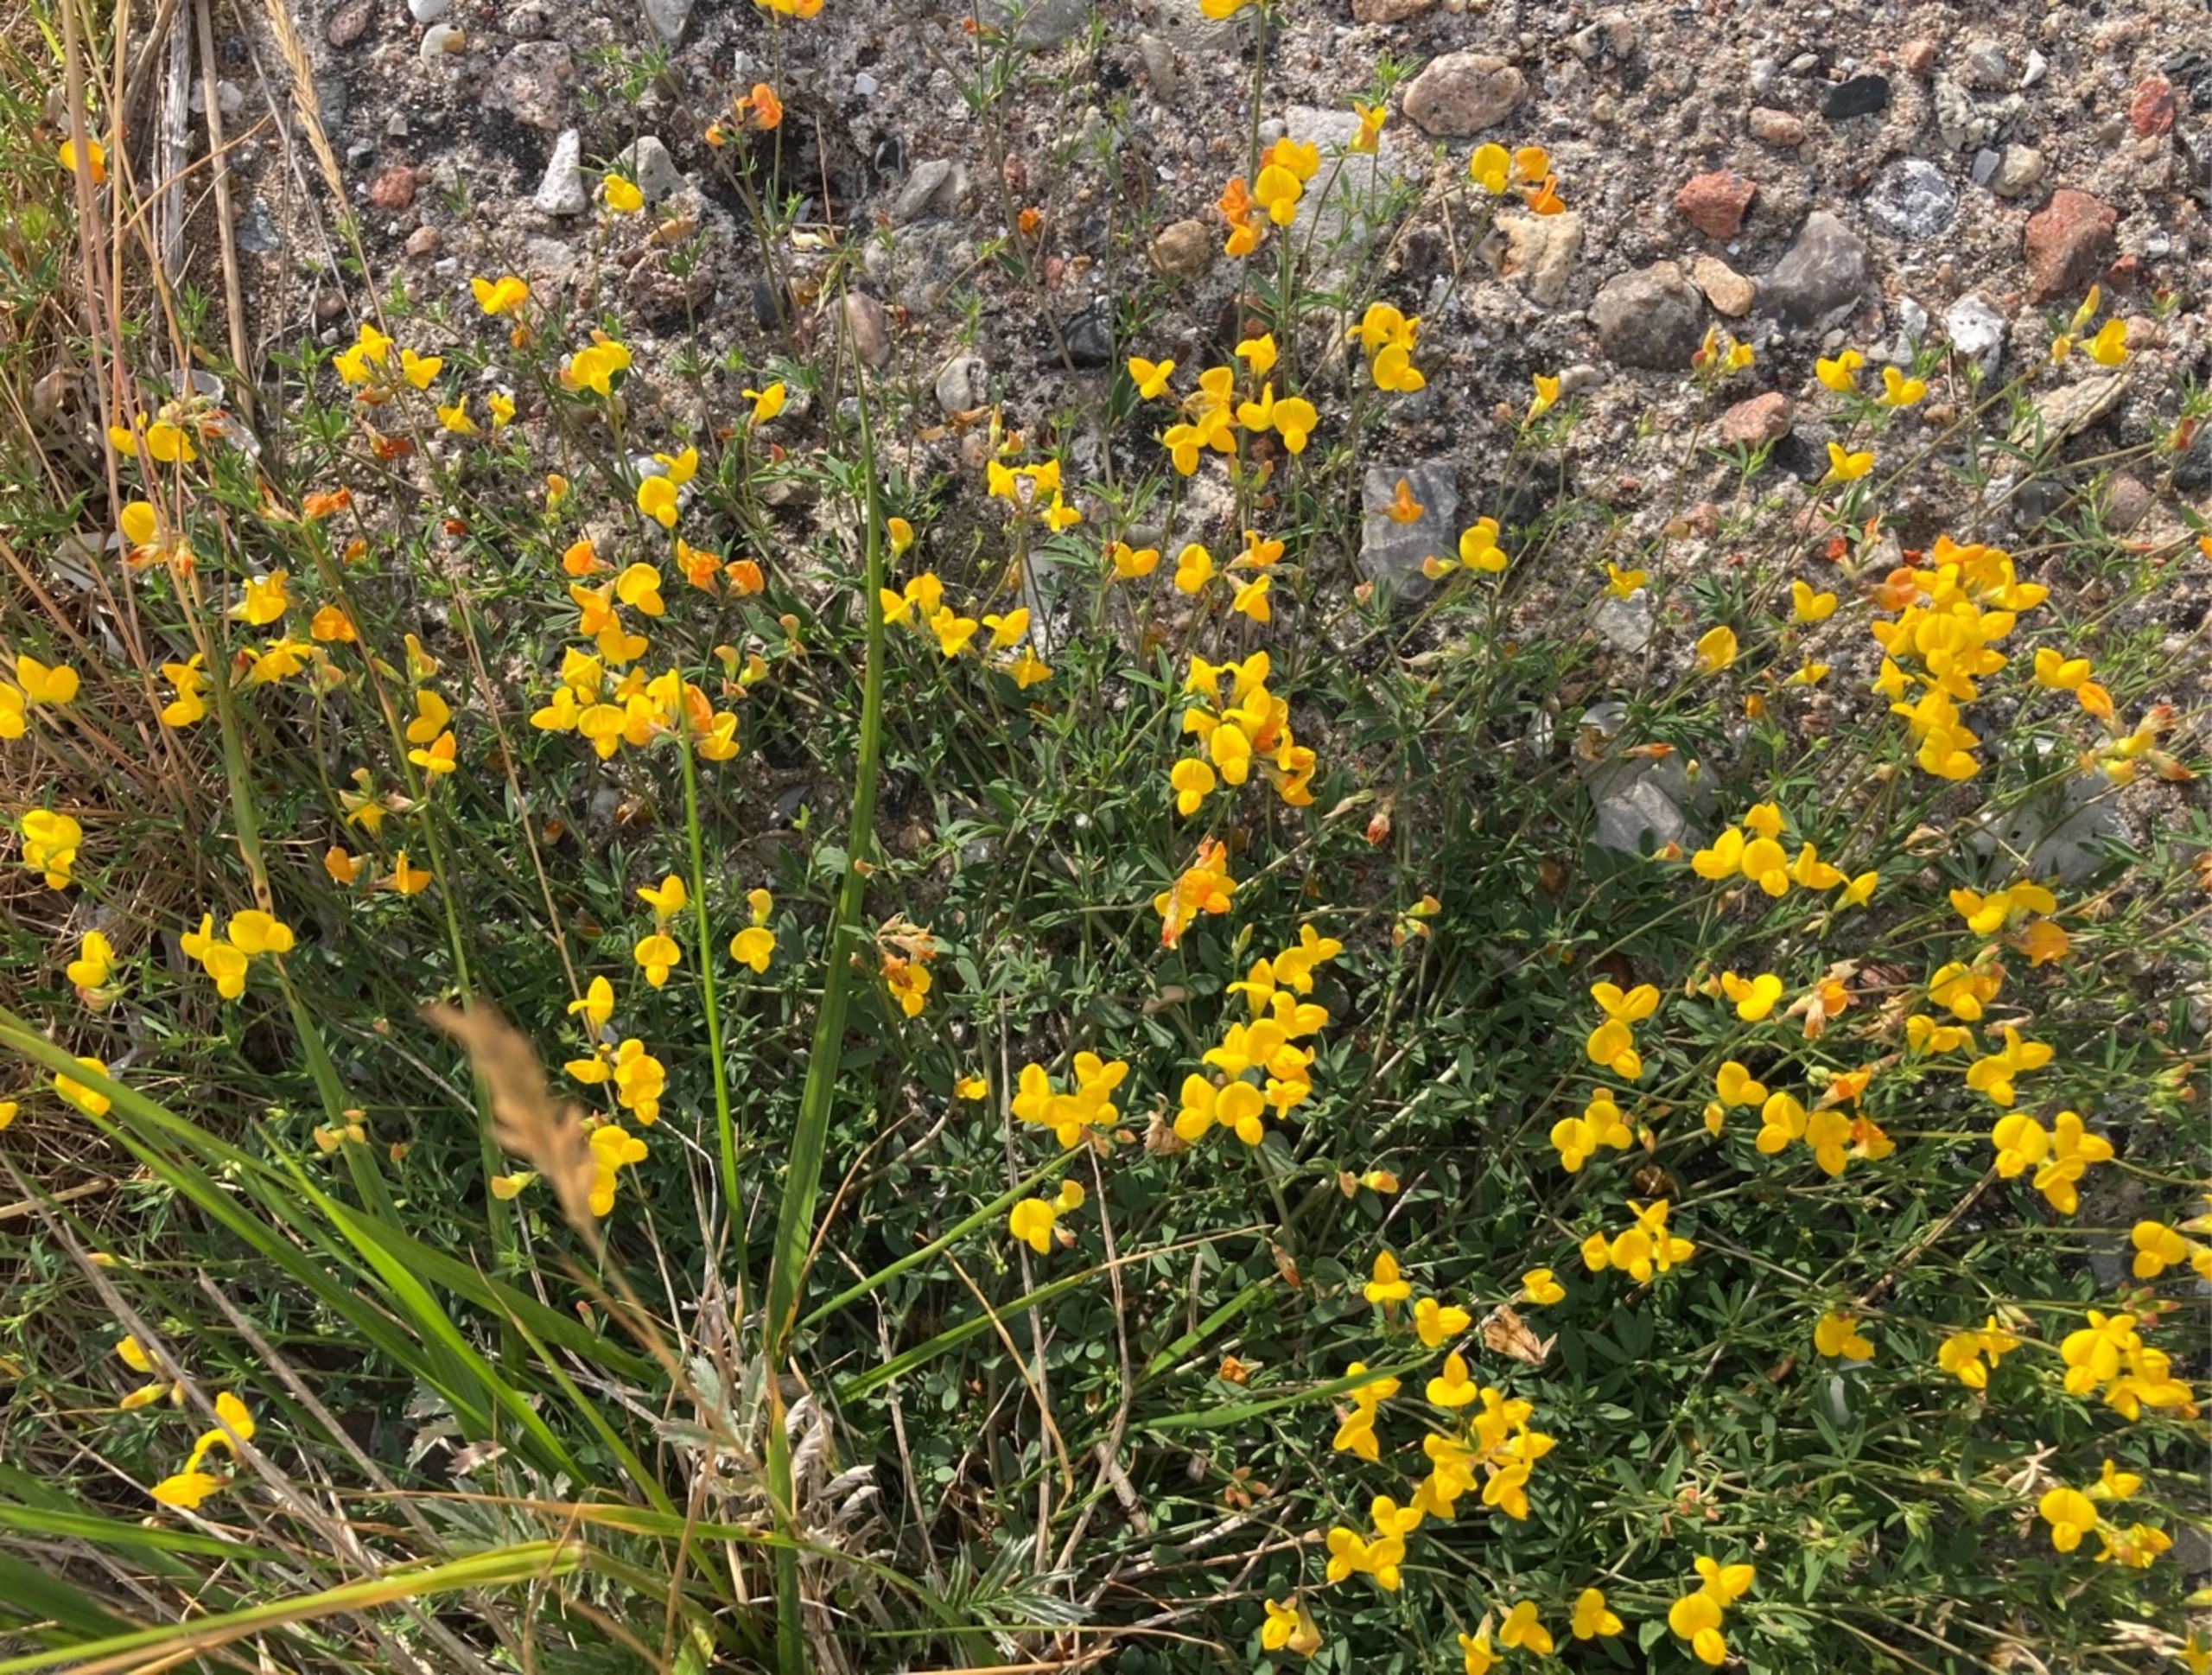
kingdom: Plantae
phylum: Tracheophyta
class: Magnoliopsida
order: Fabales
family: Fabaceae
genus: Lotus
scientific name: Lotus corniculatus
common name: Almindelig kællingetand
